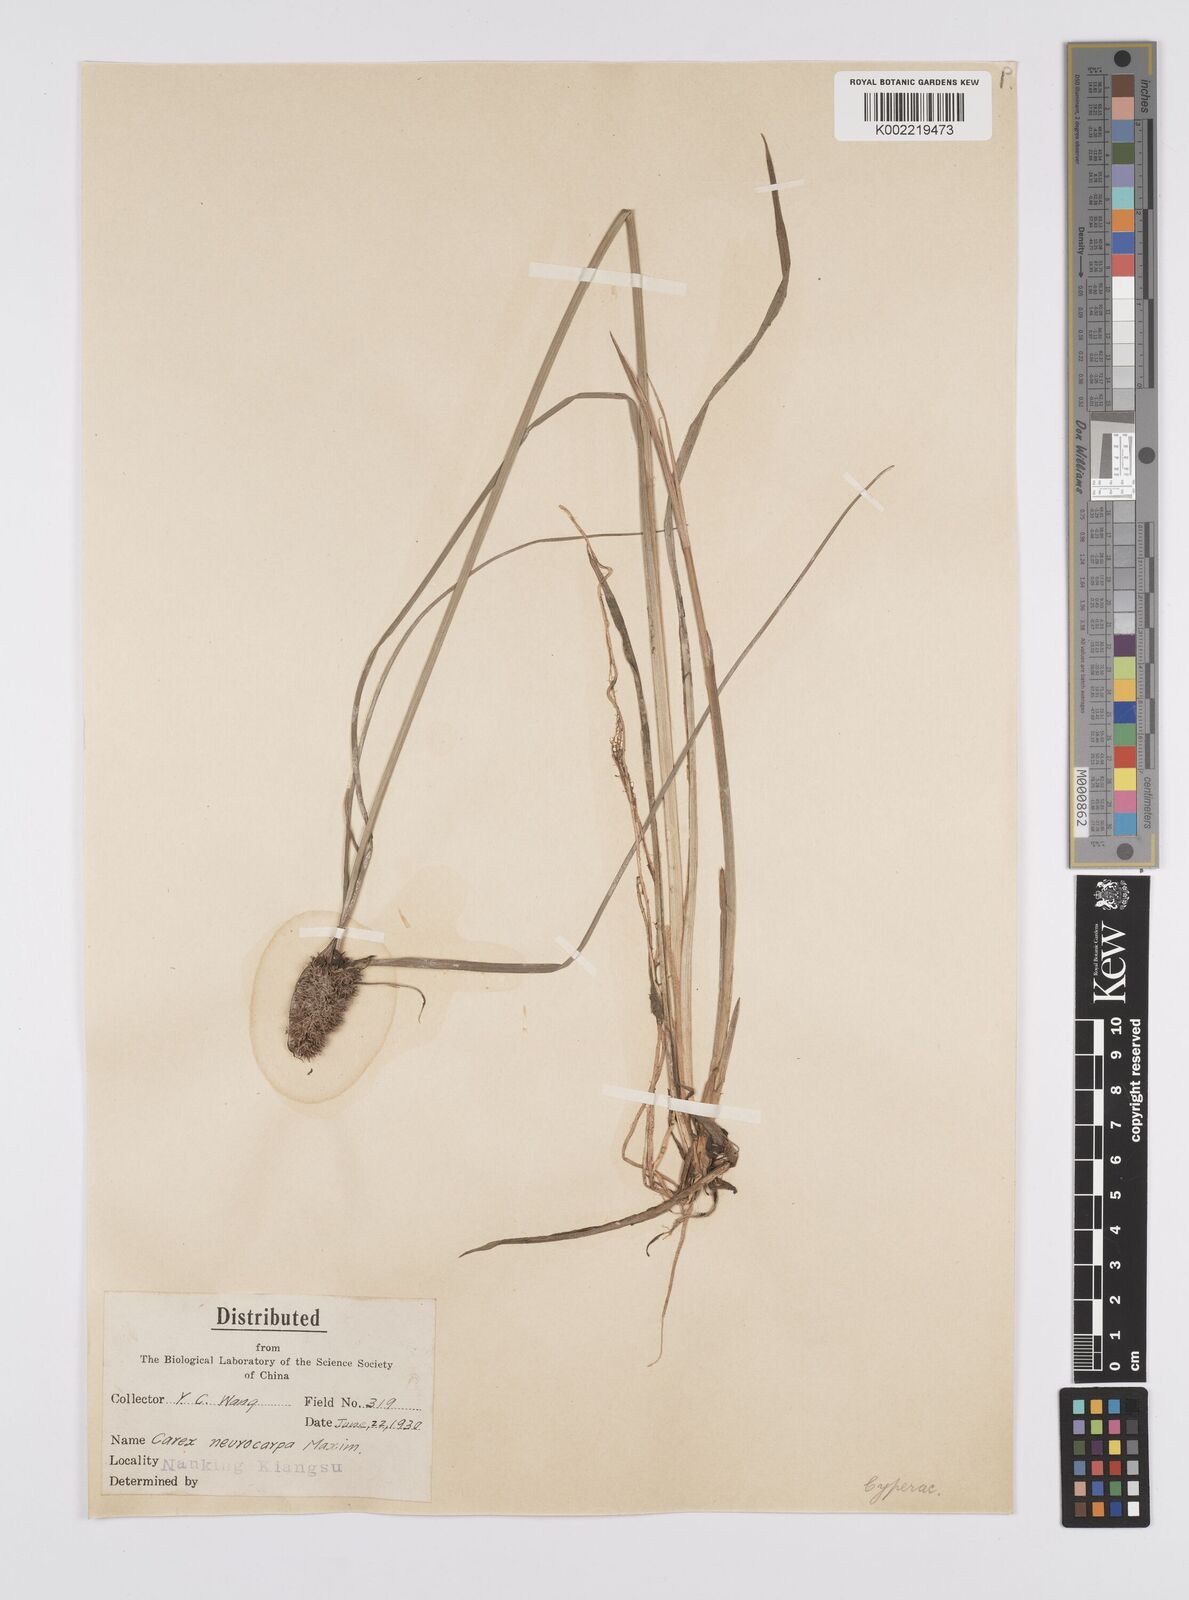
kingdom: Plantae
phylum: Tracheophyta
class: Liliopsida
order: Poales
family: Cyperaceae
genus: Carex
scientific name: Carex neurocarpa
